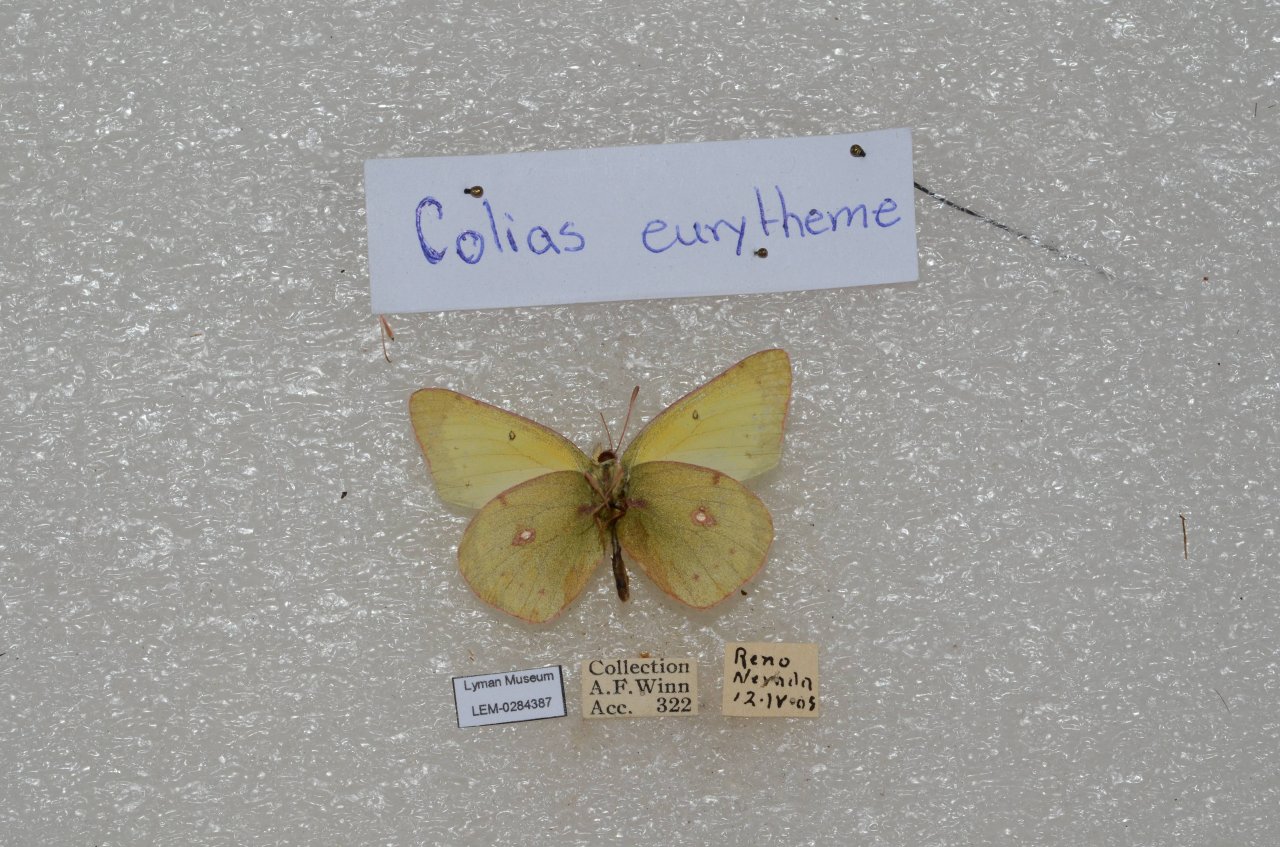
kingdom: Animalia
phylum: Arthropoda
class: Insecta
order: Lepidoptera
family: Pieridae
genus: Colias
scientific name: Colias eurytheme
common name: Orange Sulphur
